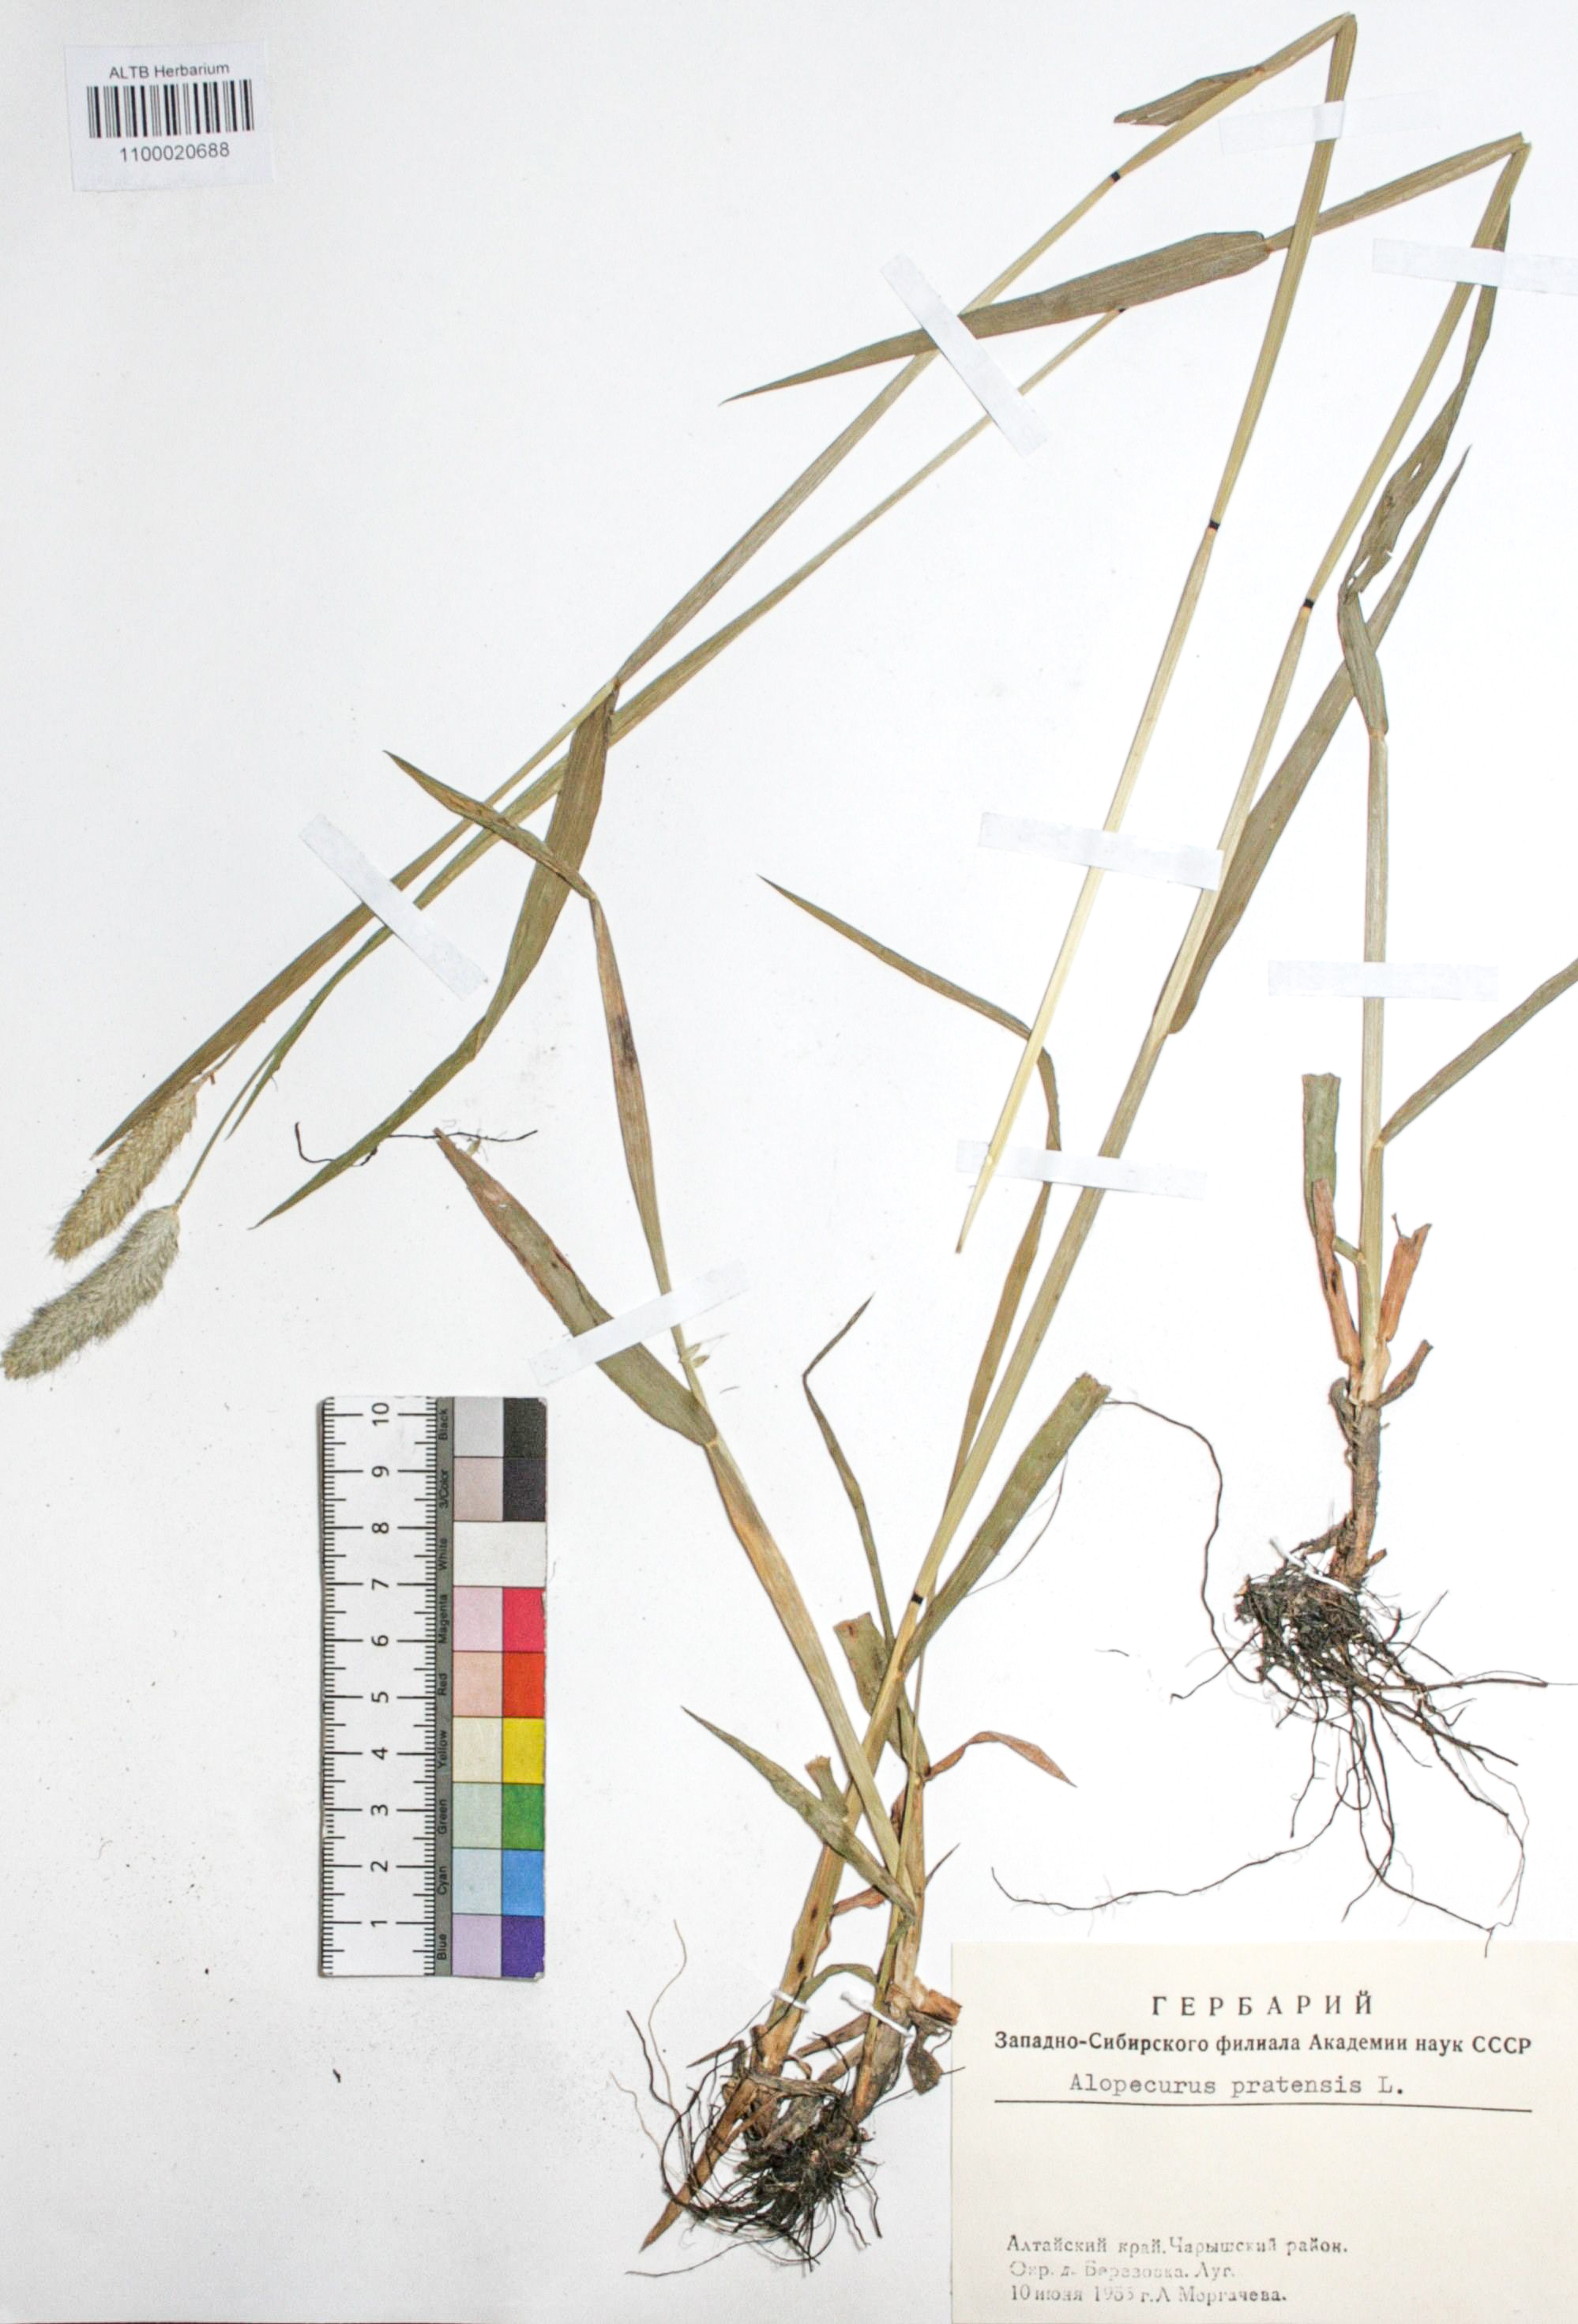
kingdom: Plantae
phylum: Tracheophyta
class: Liliopsida
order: Poales
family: Poaceae
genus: Alopecurus
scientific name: Alopecurus pratensis
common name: Meadow foxtail
